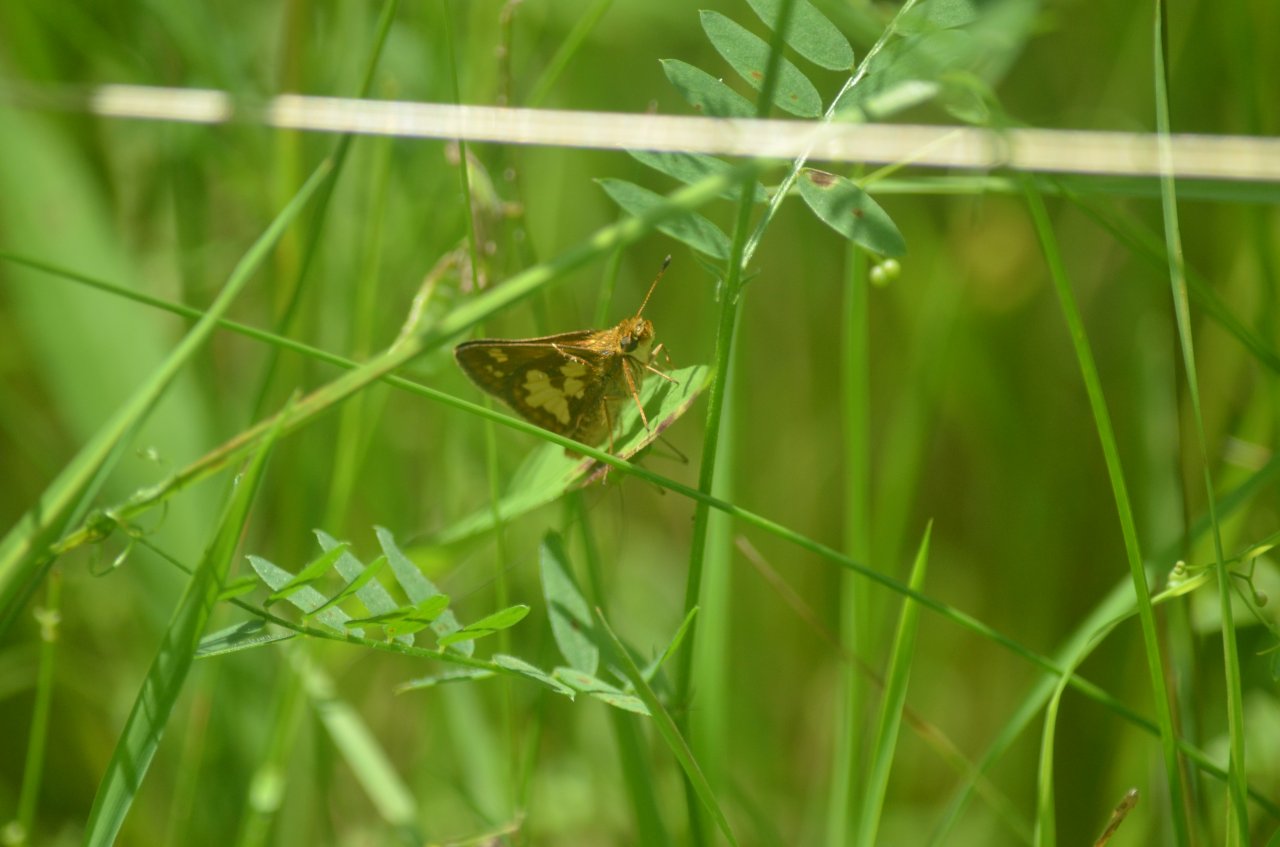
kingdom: Animalia
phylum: Arthropoda
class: Insecta
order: Lepidoptera
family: Hesperiidae
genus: Polites
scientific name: Polites coras
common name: Peck's Skipper
